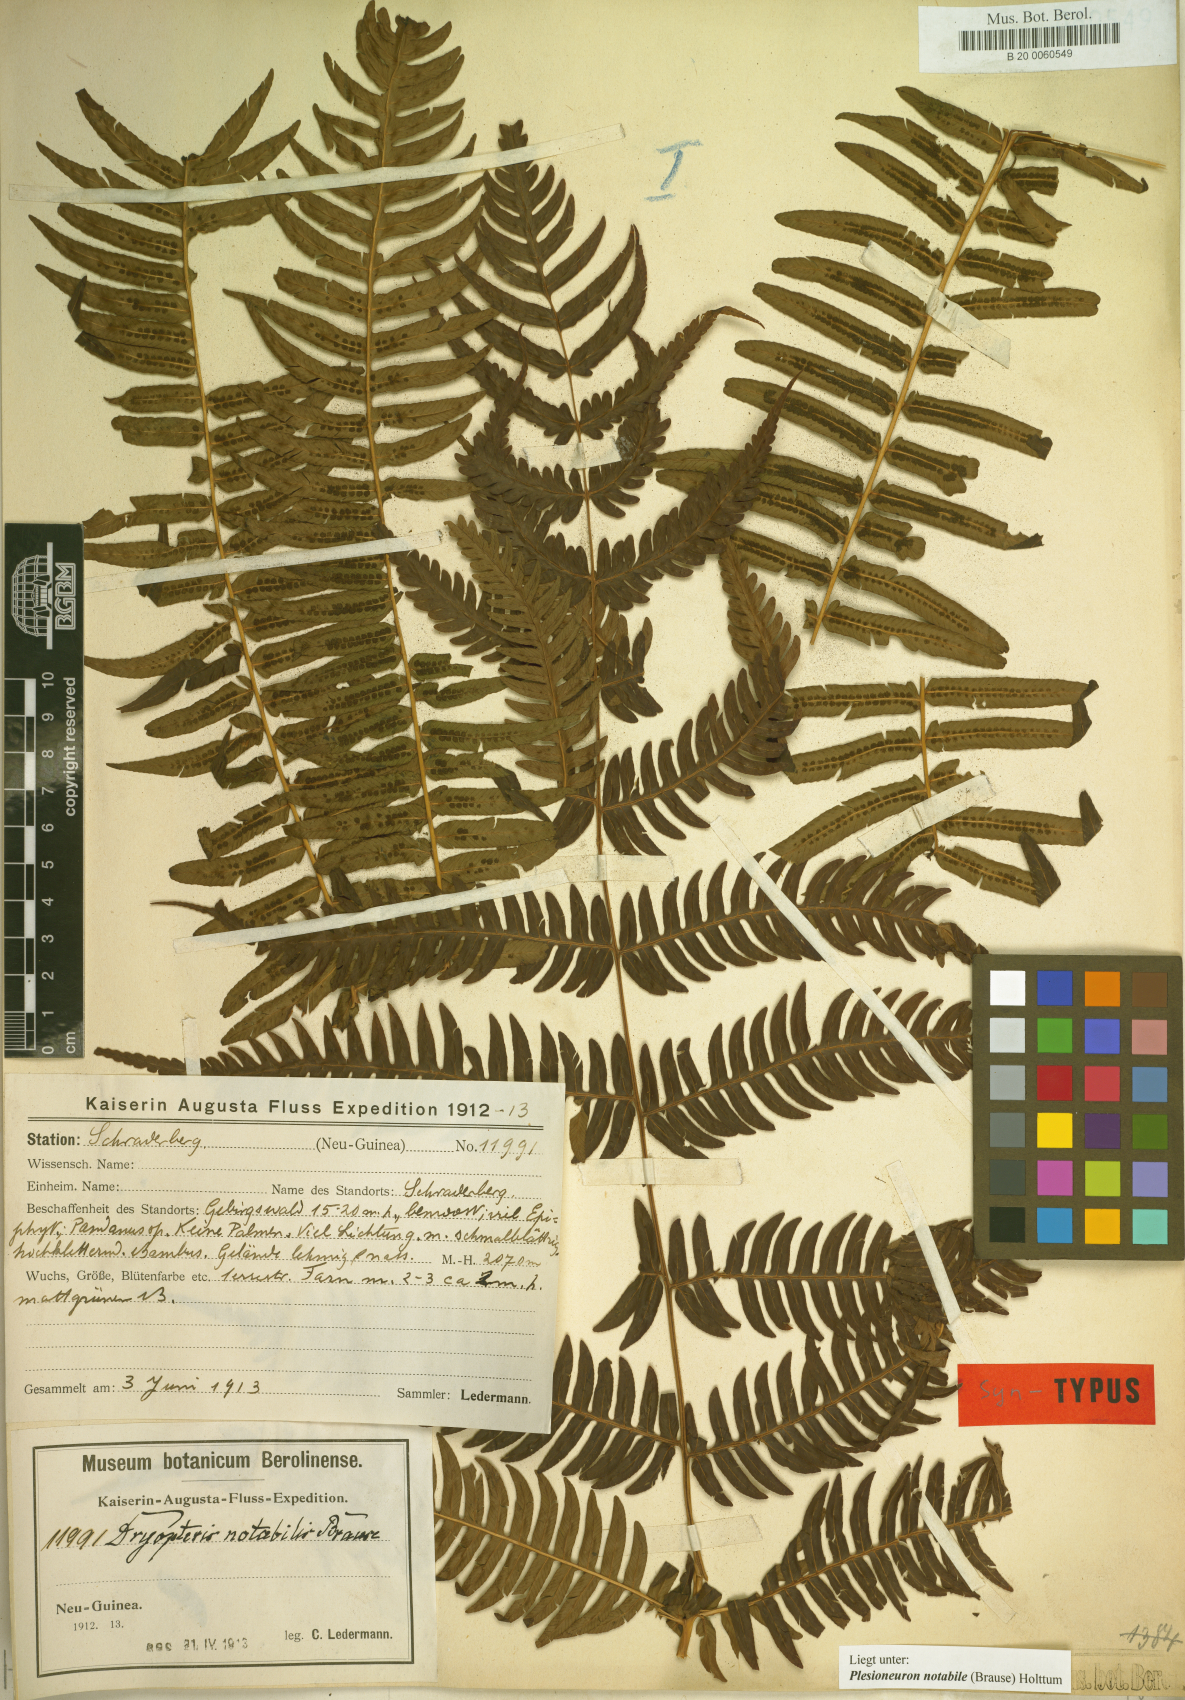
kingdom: Plantae
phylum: Tracheophyta
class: Polypodiopsida
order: Polypodiales
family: Thelypteridaceae
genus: Plesioneuron
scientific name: Plesioneuron notabile
